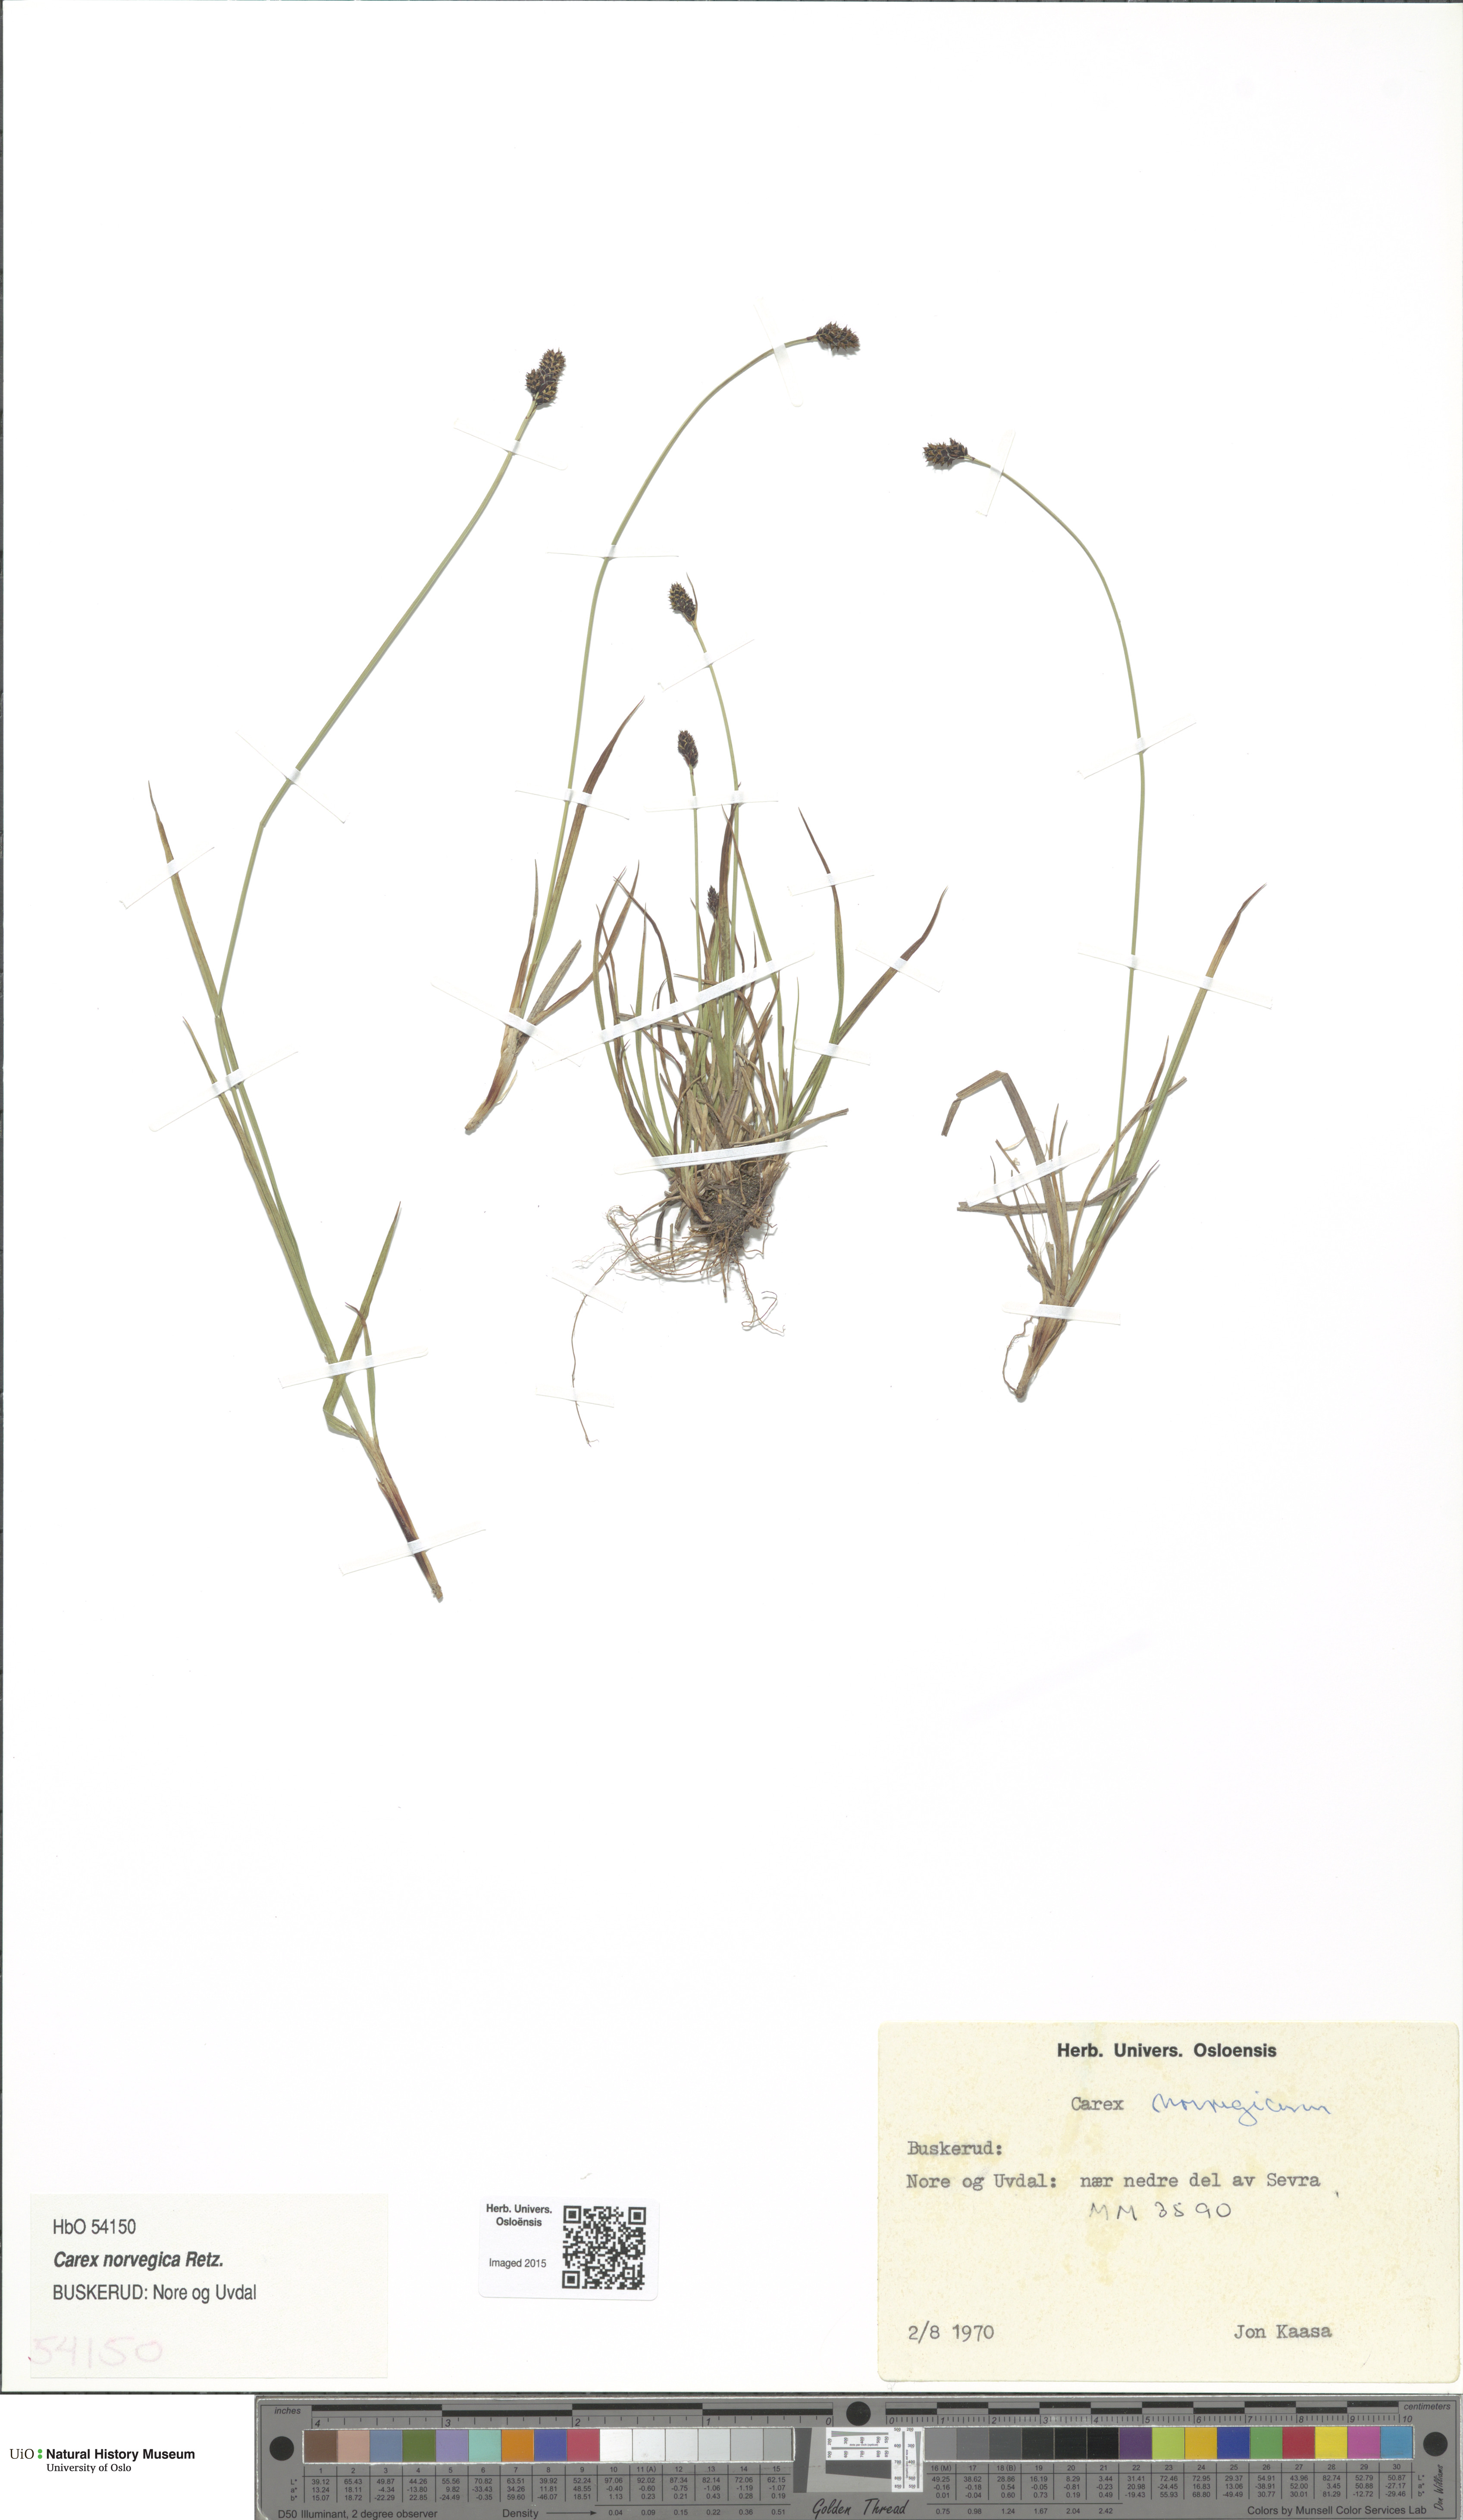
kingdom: Plantae
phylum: Tracheophyta
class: Liliopsida
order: Poales
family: Cyperaceae
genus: Carex
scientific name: Carex norvegica
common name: Close-headed alpine-sedge
